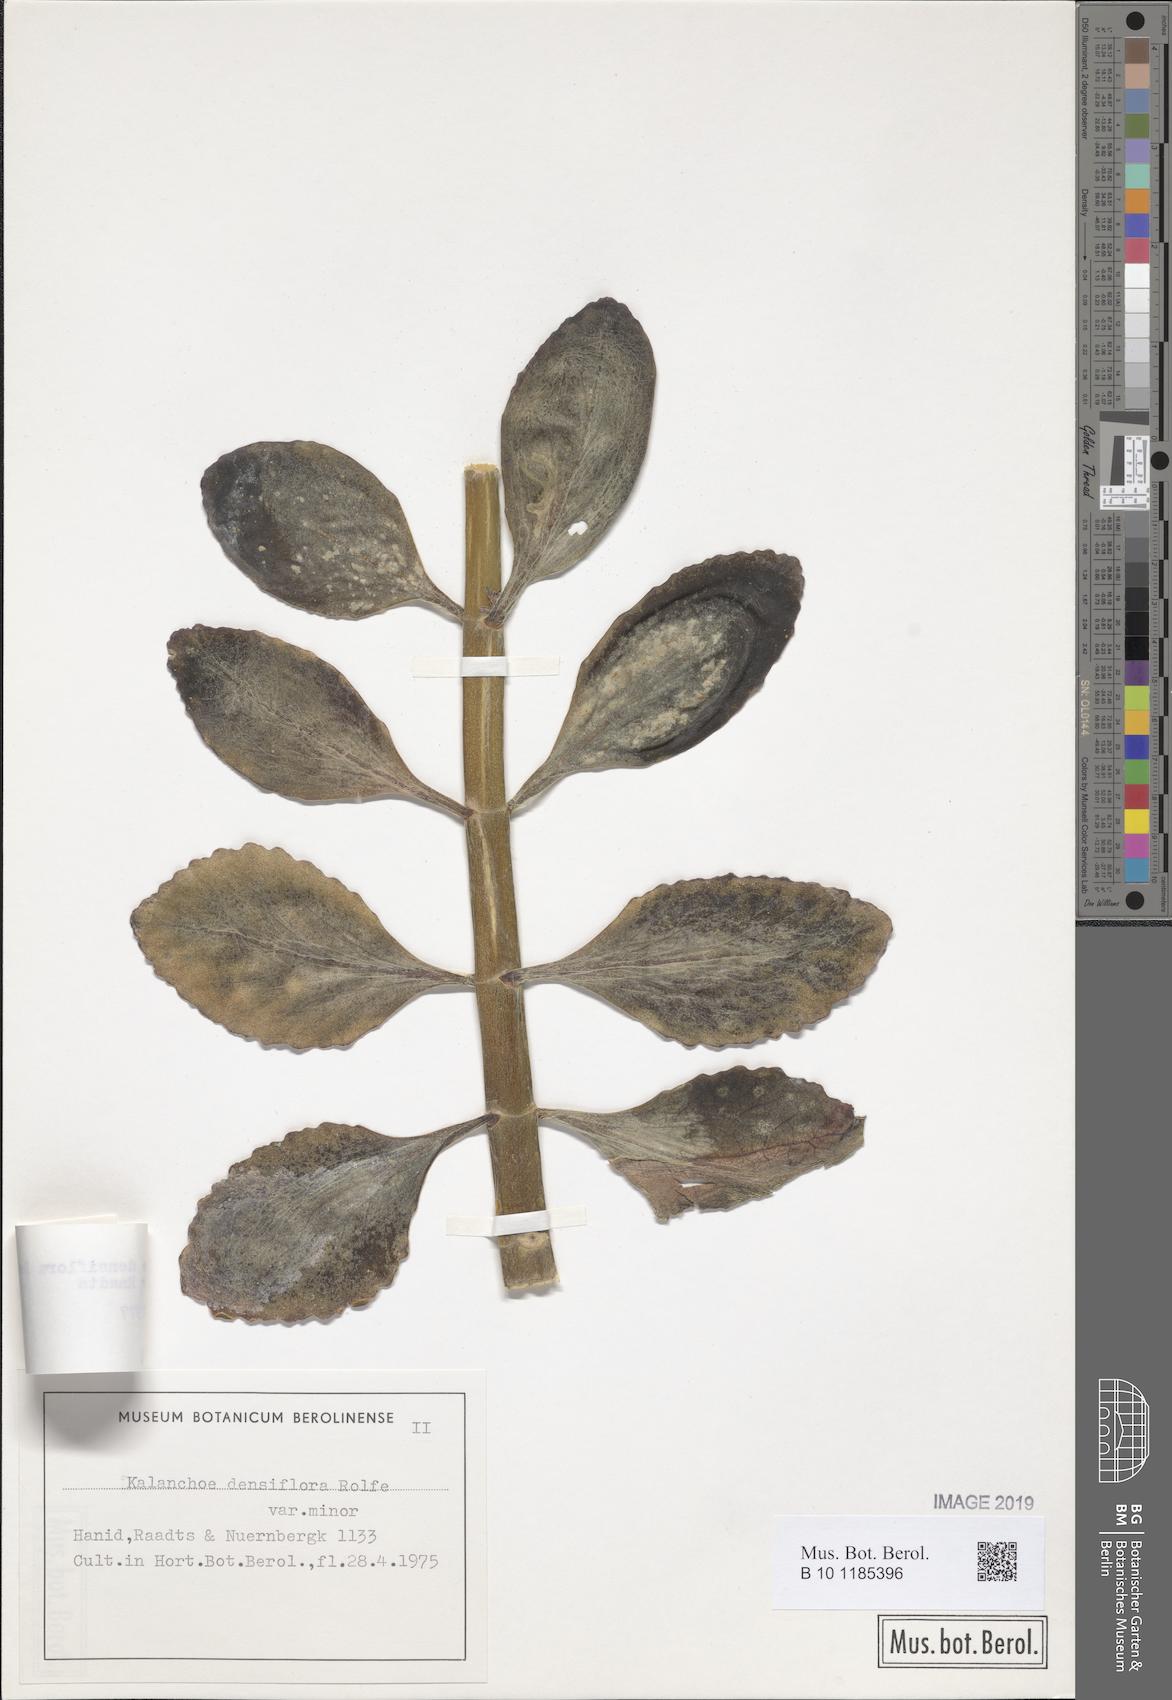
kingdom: Plantae
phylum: Tracheophyta
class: Magnoliopsida
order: Saxifragales
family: Crassulaceae
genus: Kalanchoe
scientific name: Kalanchoe densiflora
